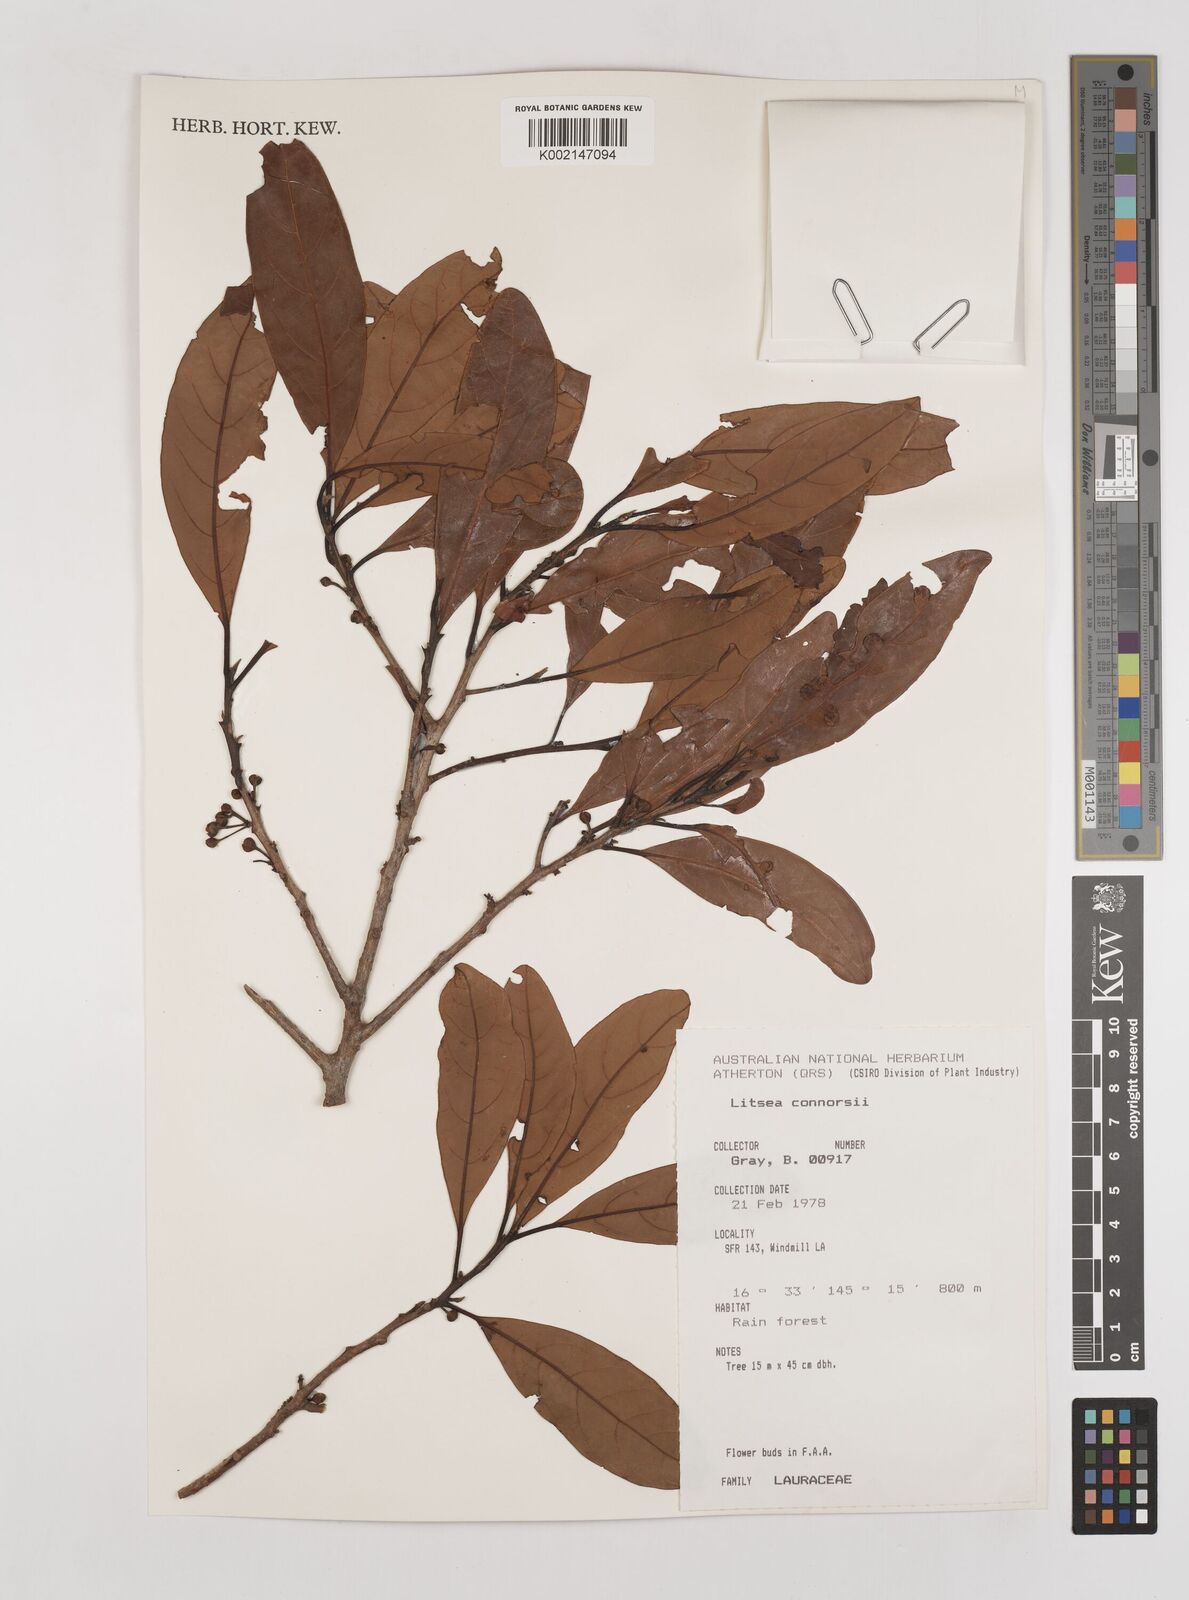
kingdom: Plantae
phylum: Tracheophyta
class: Magnoliopsida
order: Laurales
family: Lauraceae
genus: Litsea
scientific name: Litsea connorsii
